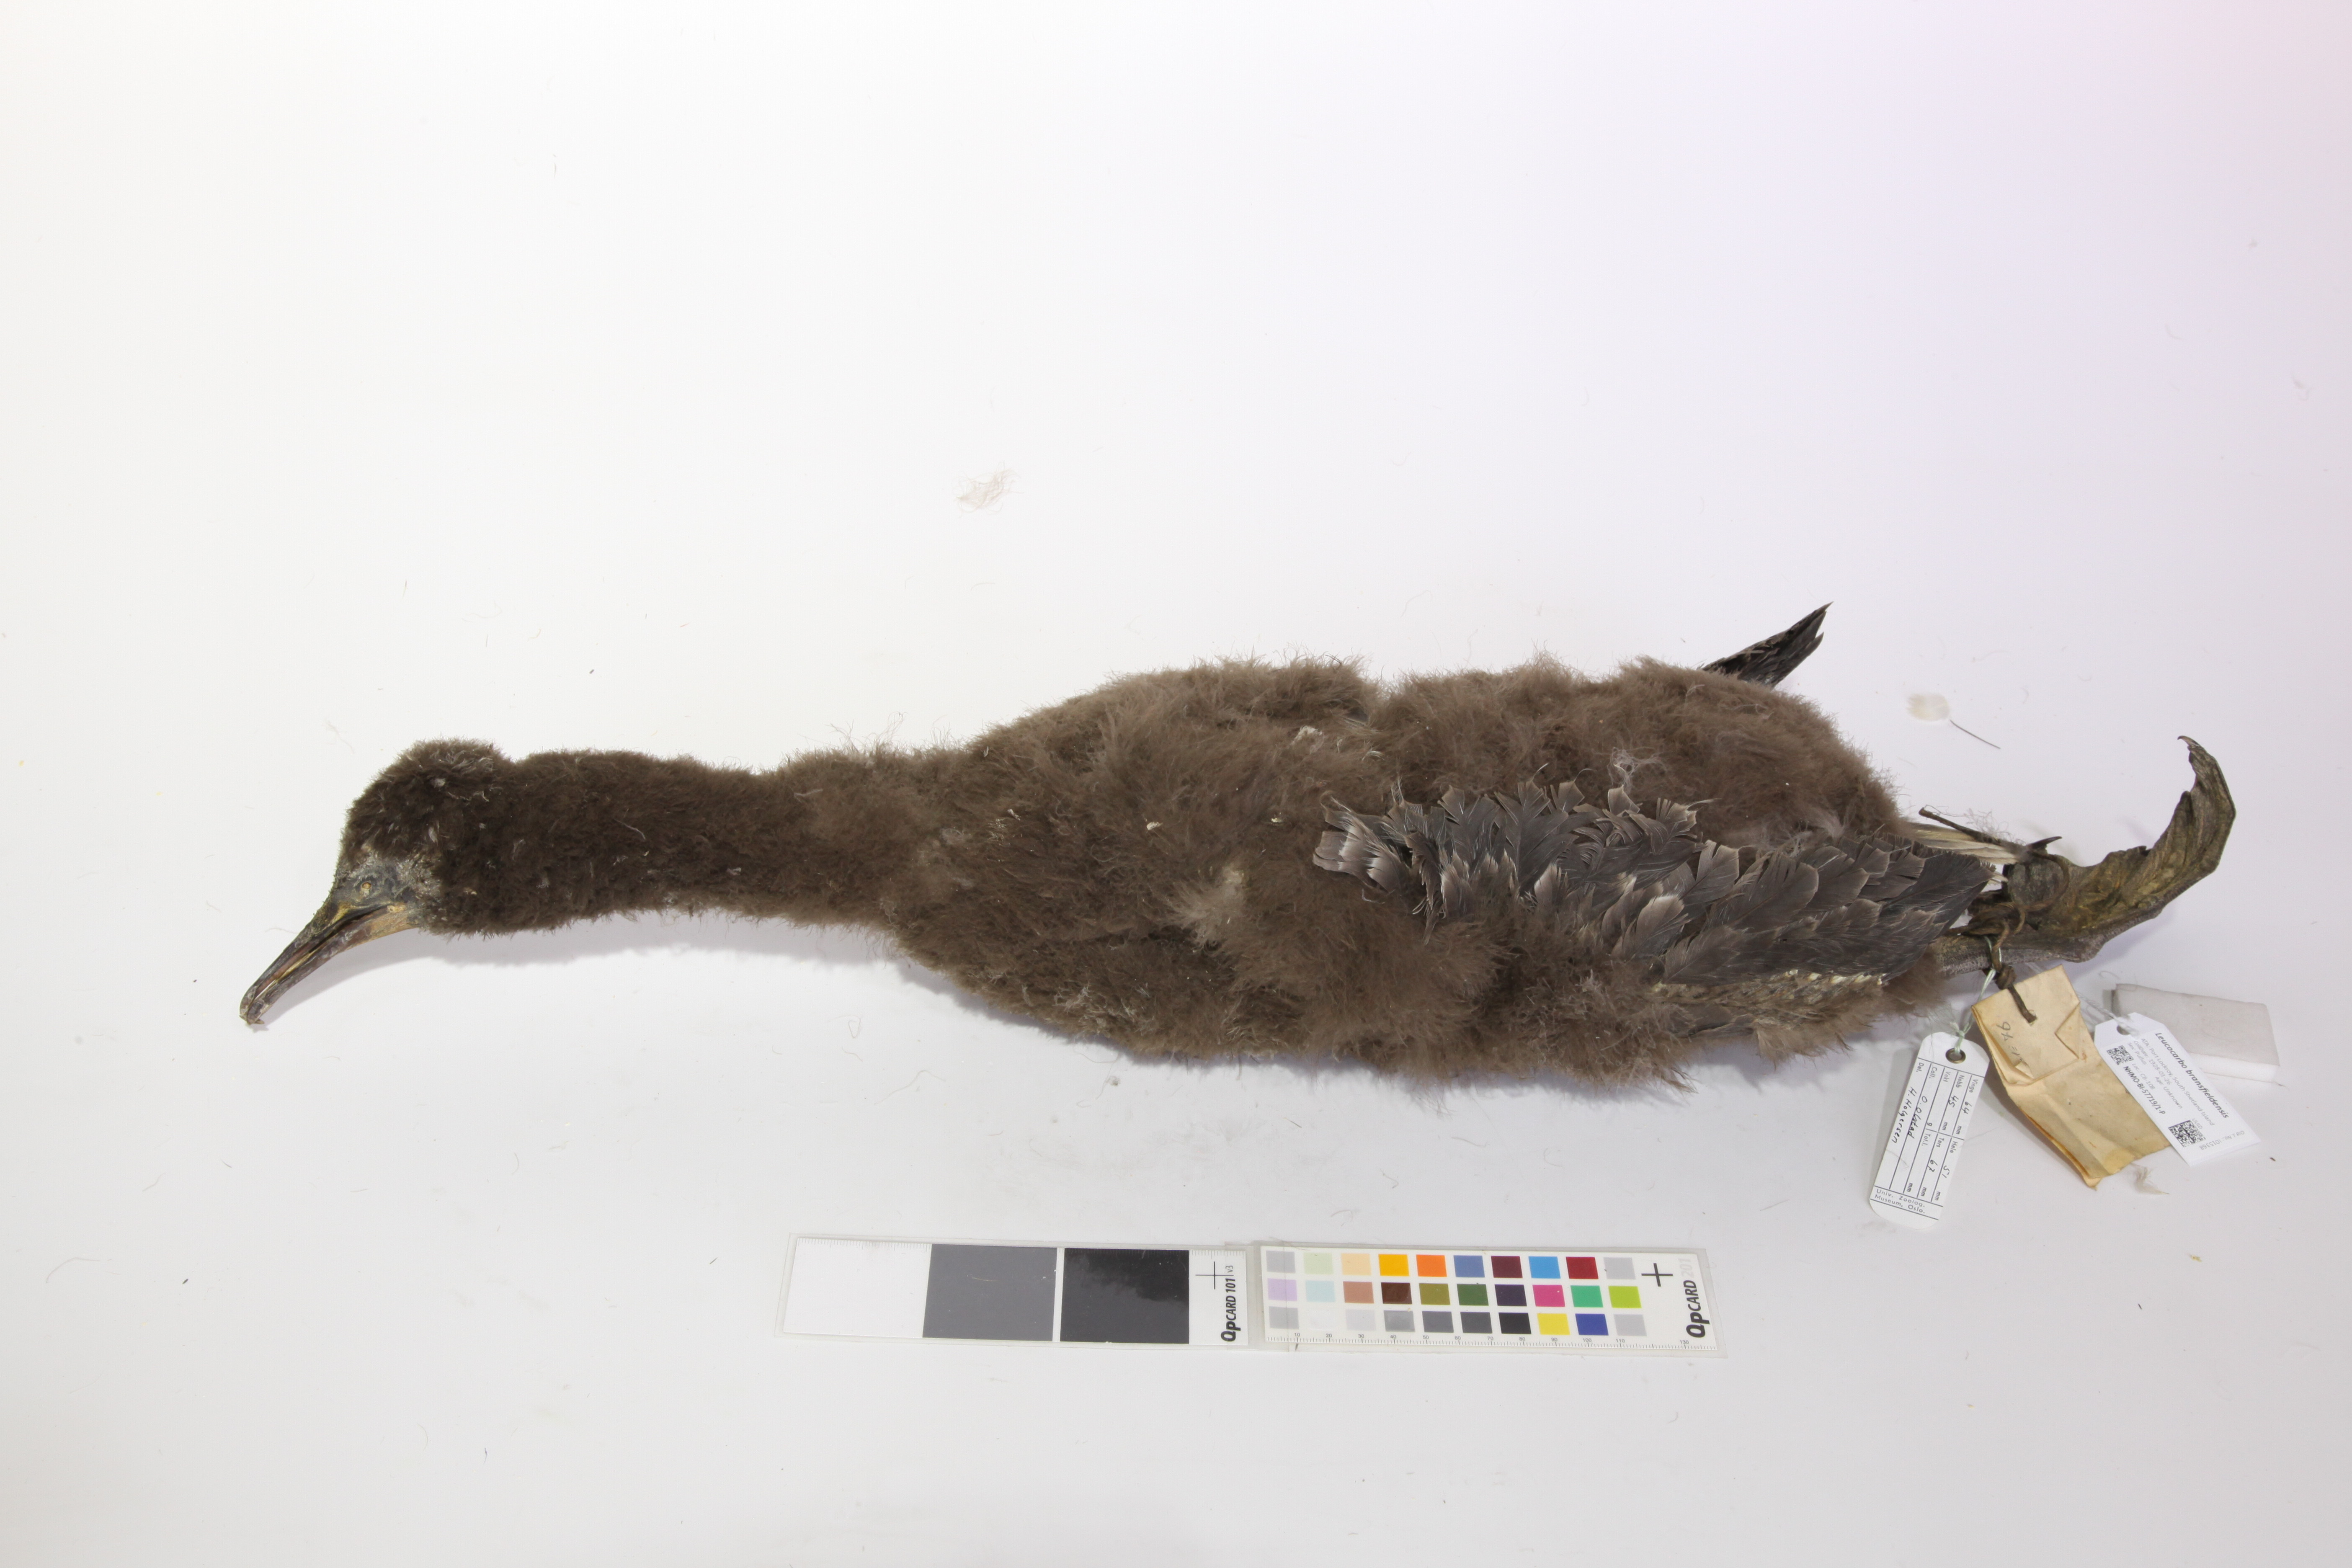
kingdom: Animalia
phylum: Chordata
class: Aves
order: Suliformes
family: Phalacrocoracidae
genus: Leucocarbo
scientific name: Leucocarbo atriceps
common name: Imperial shag
